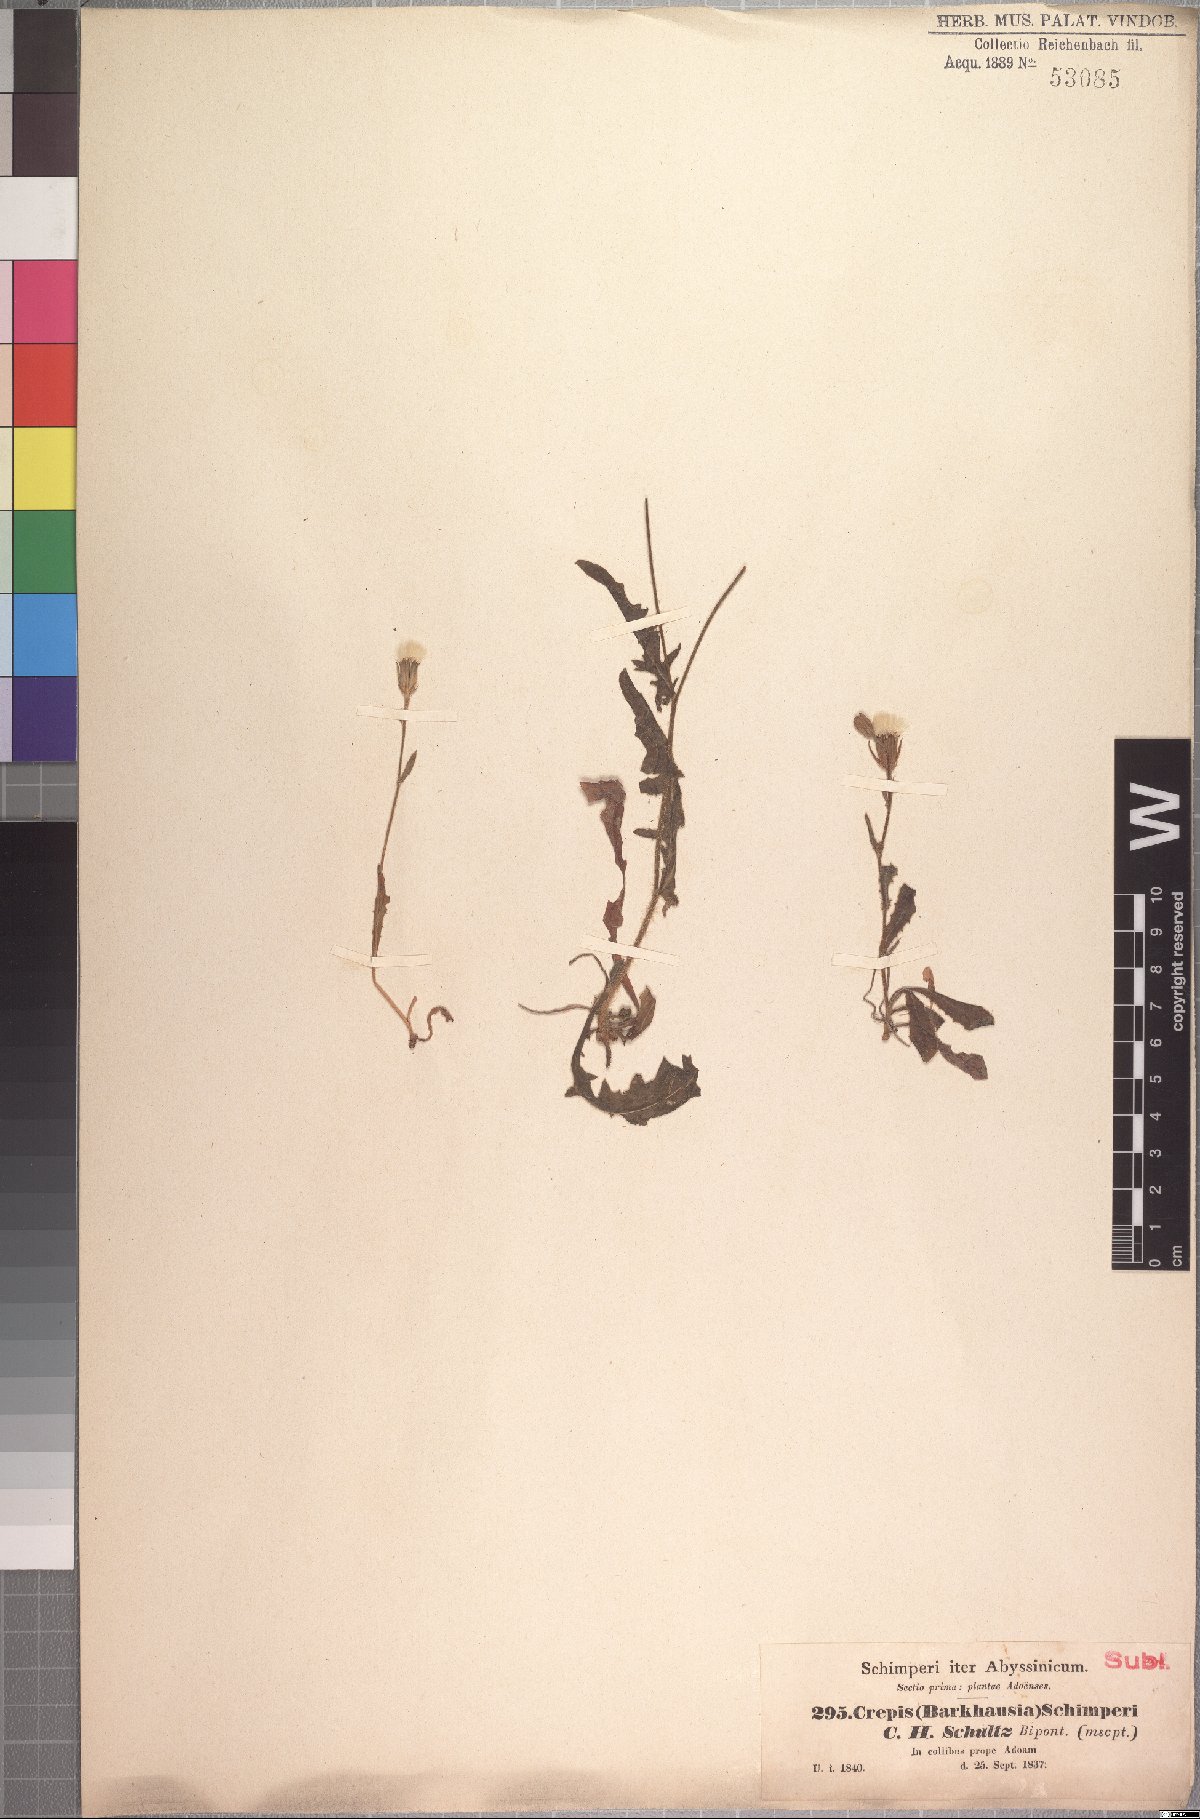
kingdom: Plantae
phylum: Tracheophyta
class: Magnoliopsida
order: Asterales
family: Asteraceae
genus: Crepis
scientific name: Crepis foetida
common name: Stinking hawk's-beard
